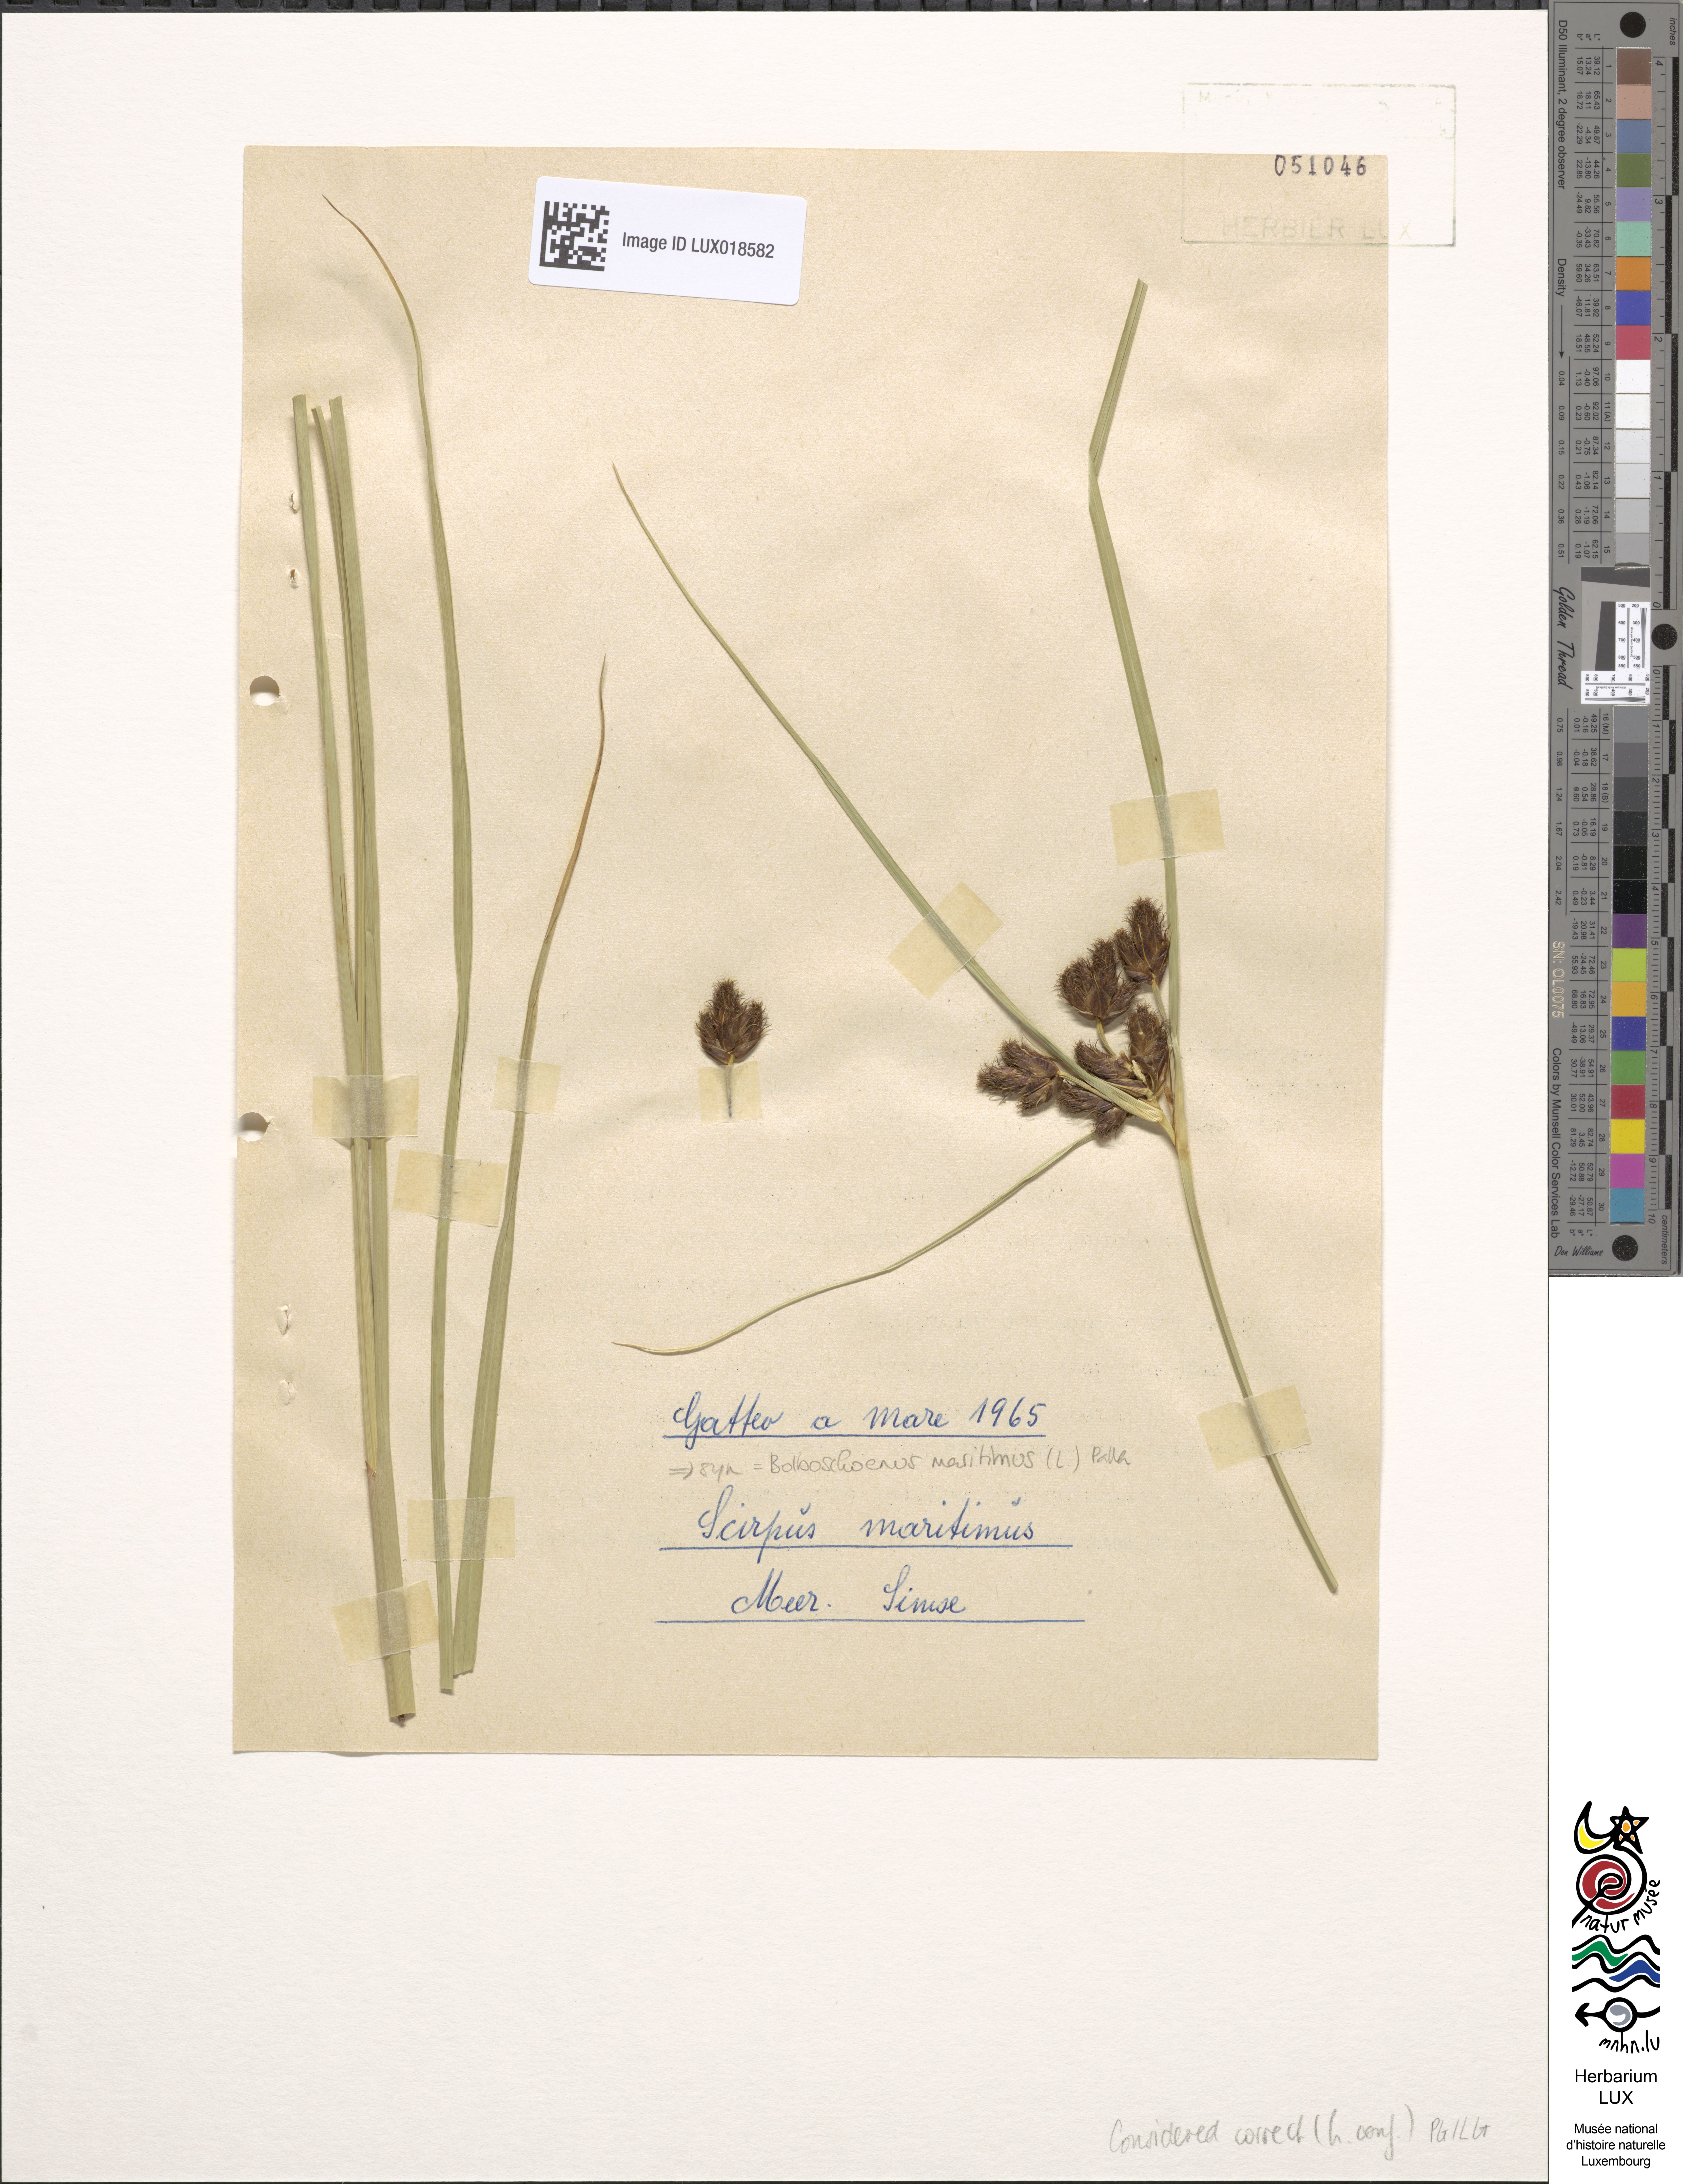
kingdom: Plantae
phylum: Tracheophyta
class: Liliopsida
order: Poales
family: Cyperaceae
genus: Bolboschoenus
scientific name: Bolboschoenus maritimus
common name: Sea club-rush
